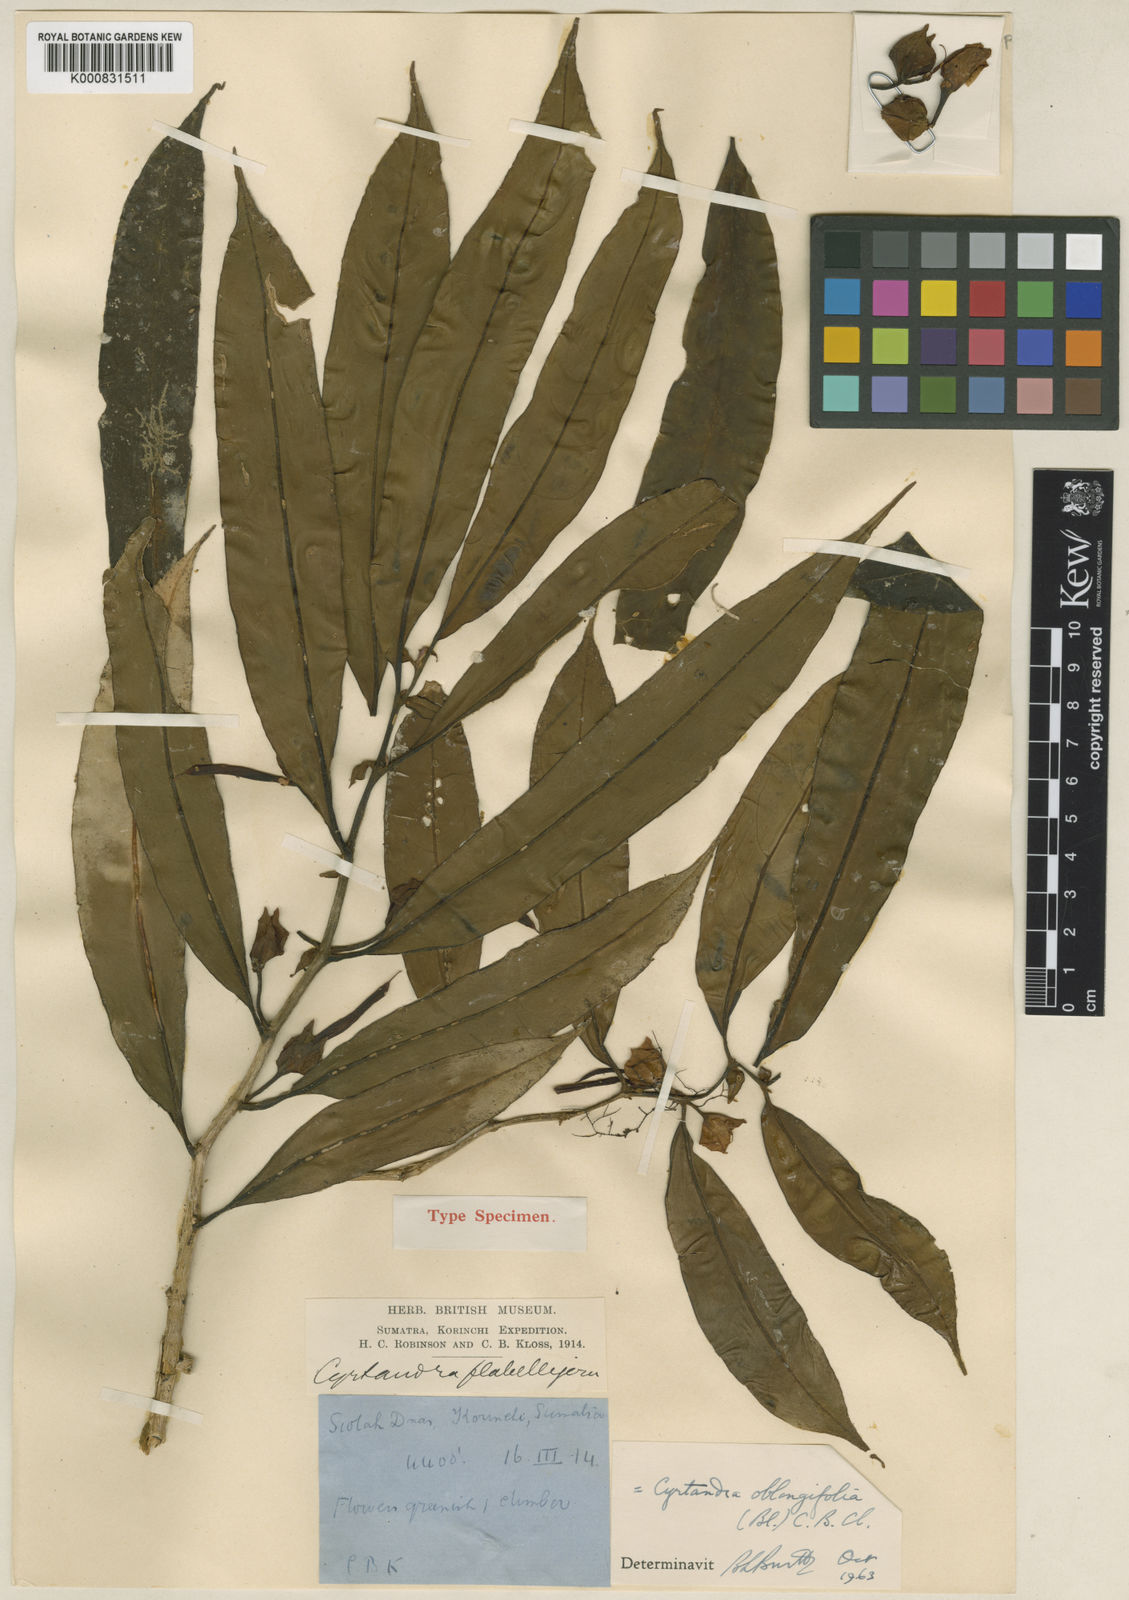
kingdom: Plantae
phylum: Tracheophyta
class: Magnoliopsida
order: Lamiales
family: Gesneriaceae
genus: Cyrtandra
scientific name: Cyrtandra oblongifolia
